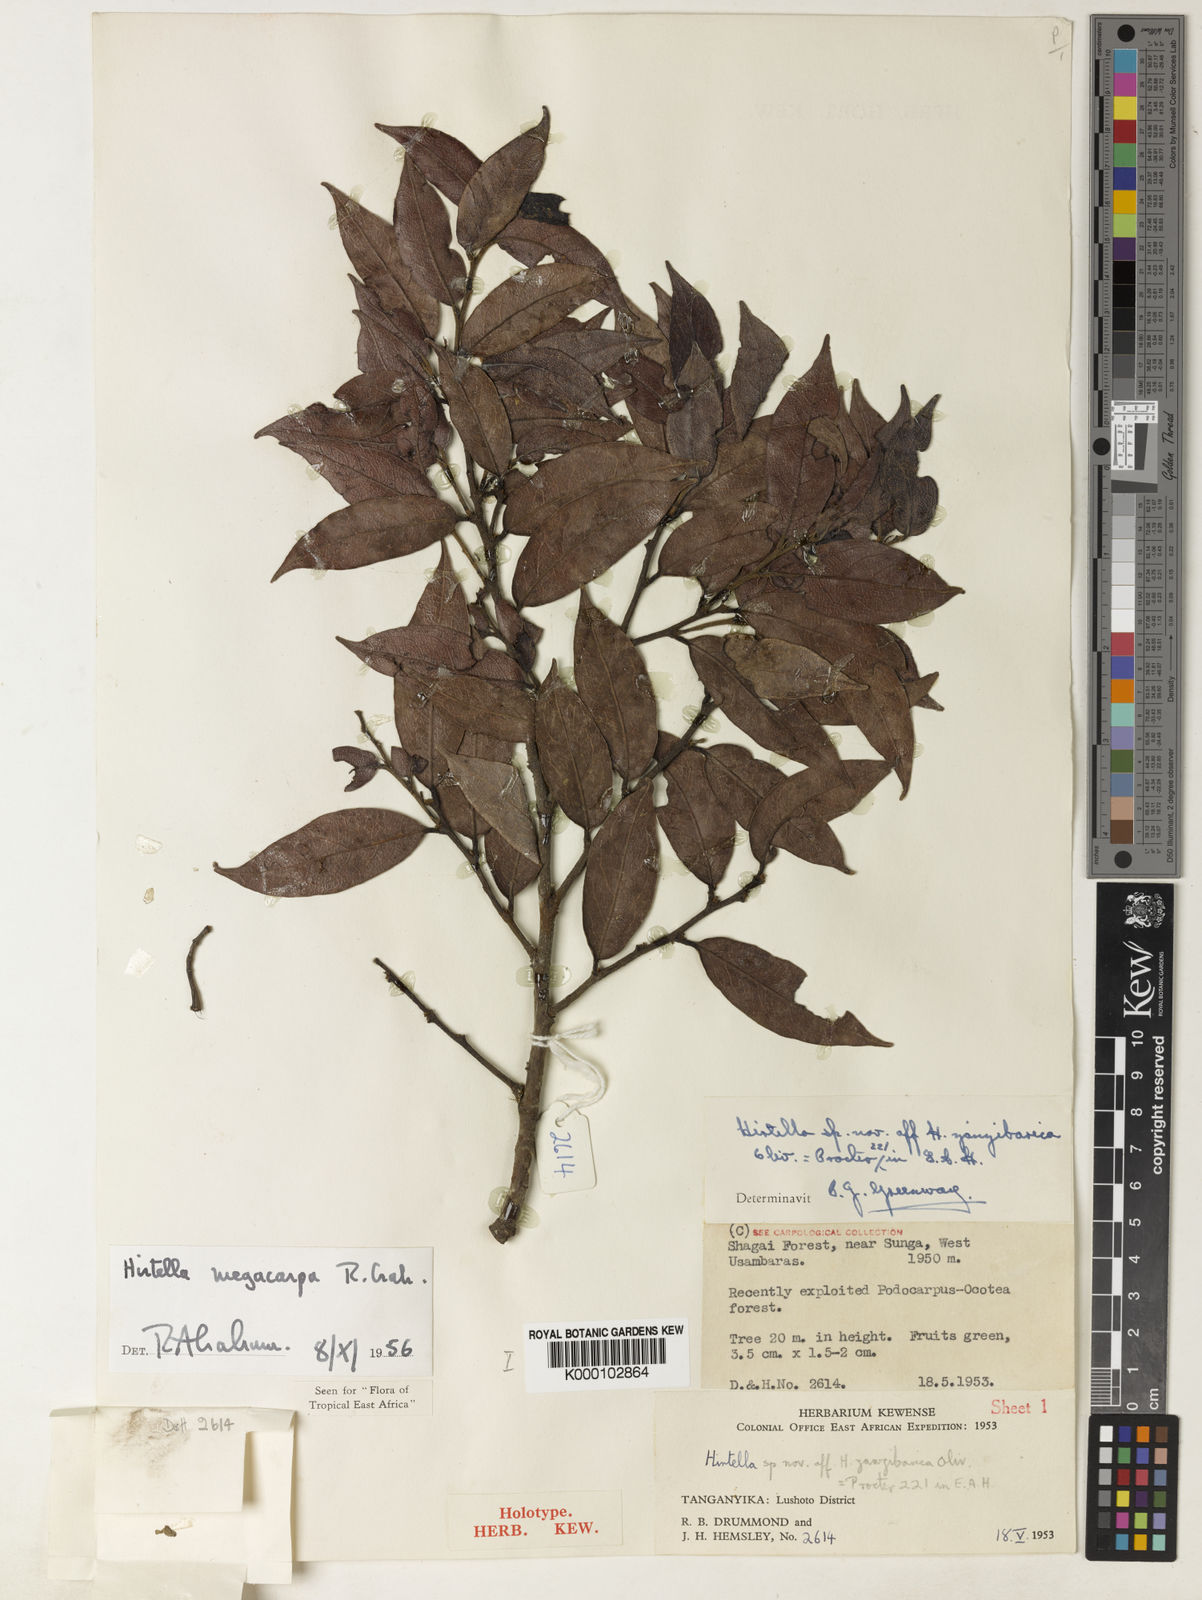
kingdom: Plantae
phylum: Tracheophyta
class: Magnoliopsida
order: Malpighiales
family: Chrysobalanaceae
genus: Hirtella
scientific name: Hirtella zanzibarica
